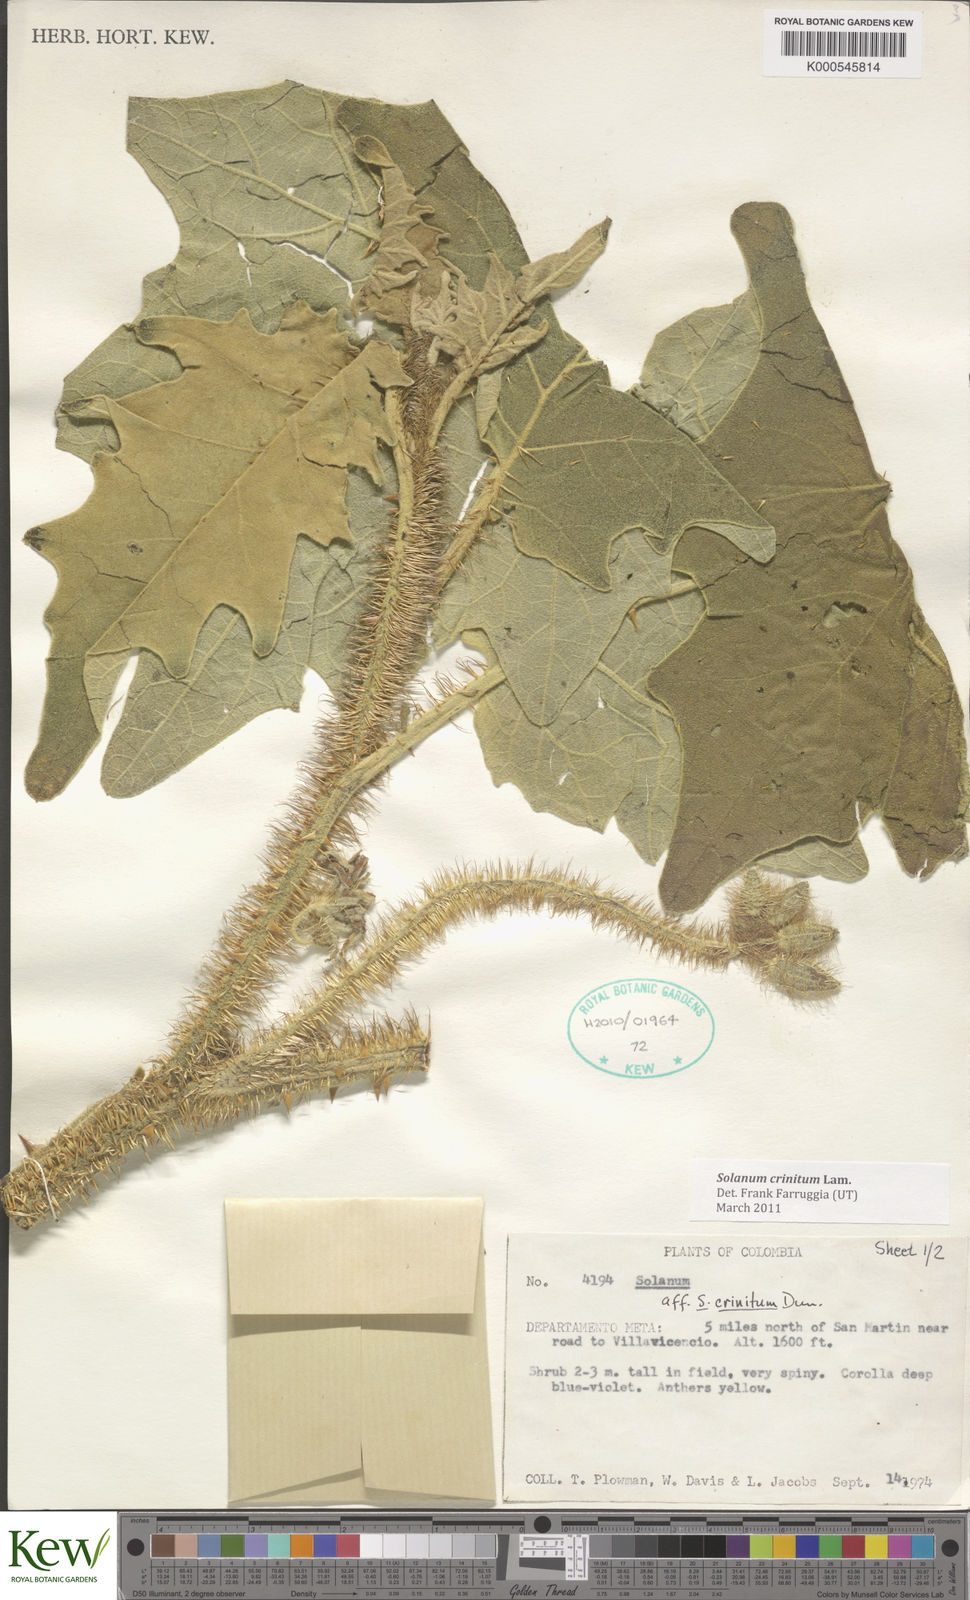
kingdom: Plantae
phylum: Tracheophyta
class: Magnoliopsida
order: Solanales
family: Solanaceae
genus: Solanum
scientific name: Solanum crinitum
